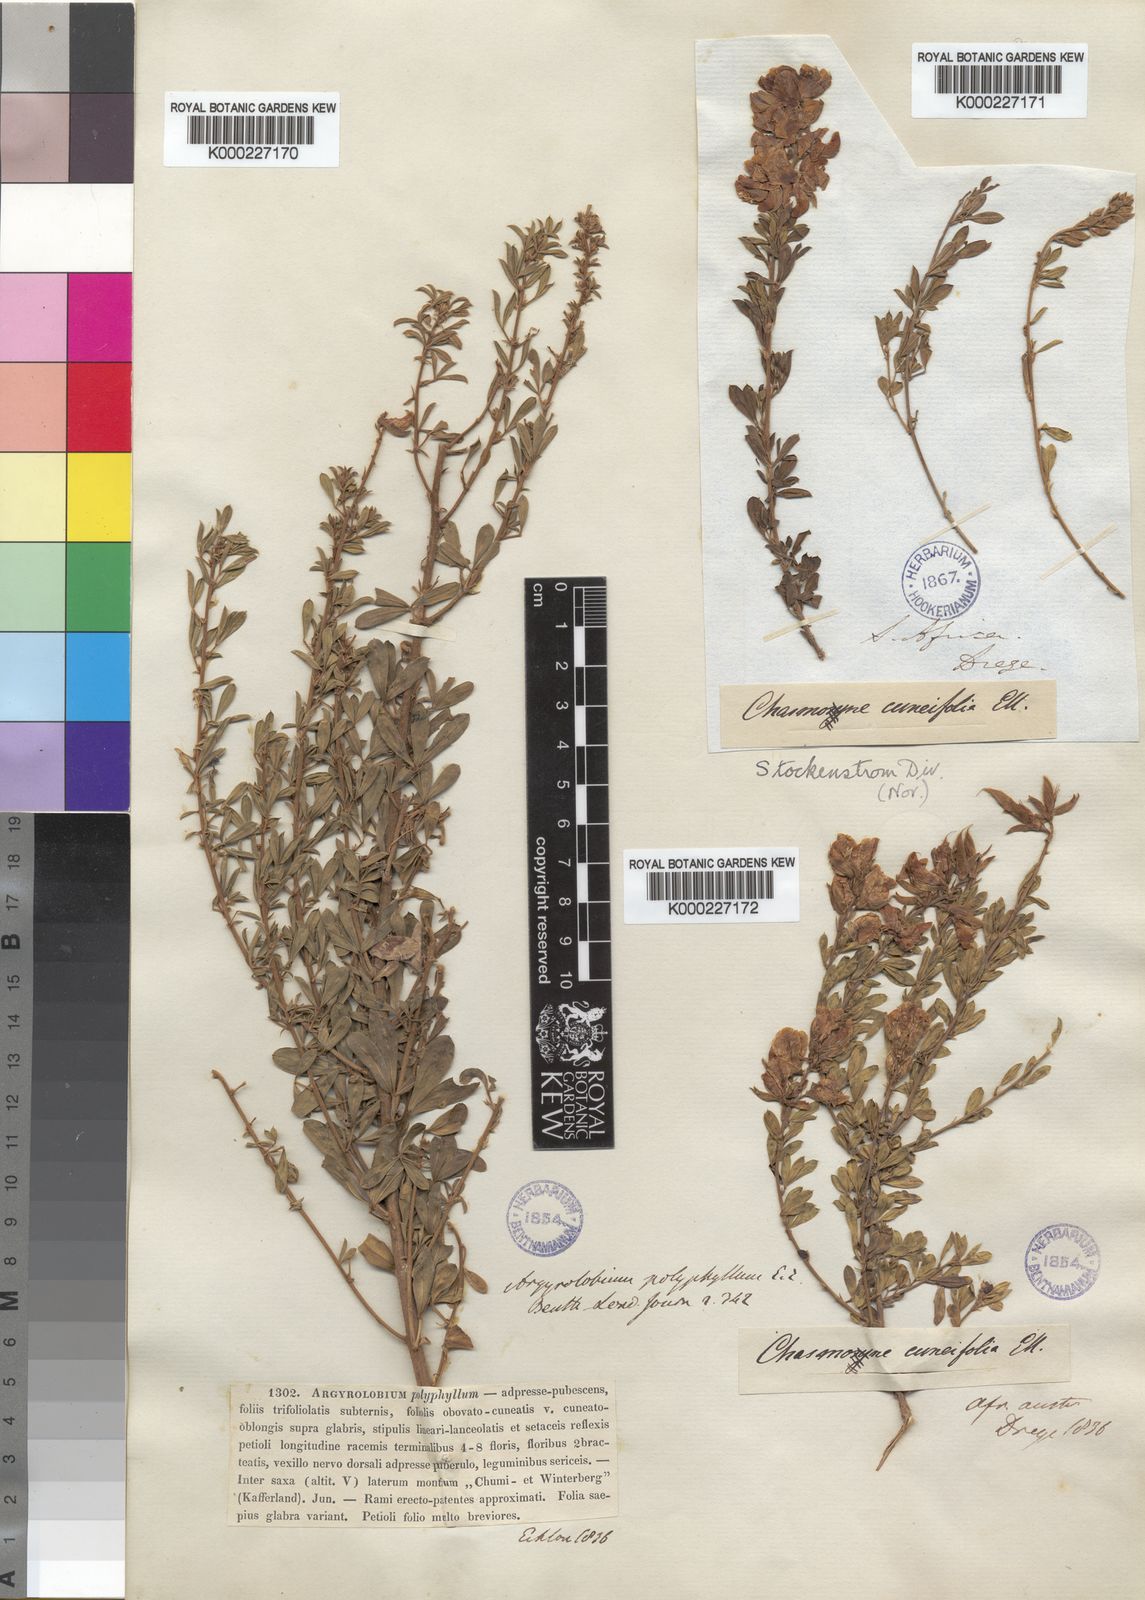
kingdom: Plantae
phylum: Tracheophyta
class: Magnoliopsida
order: Fabales
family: Fabaceae
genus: Argyrolobium
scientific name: Argyrolobium polyphyllum
